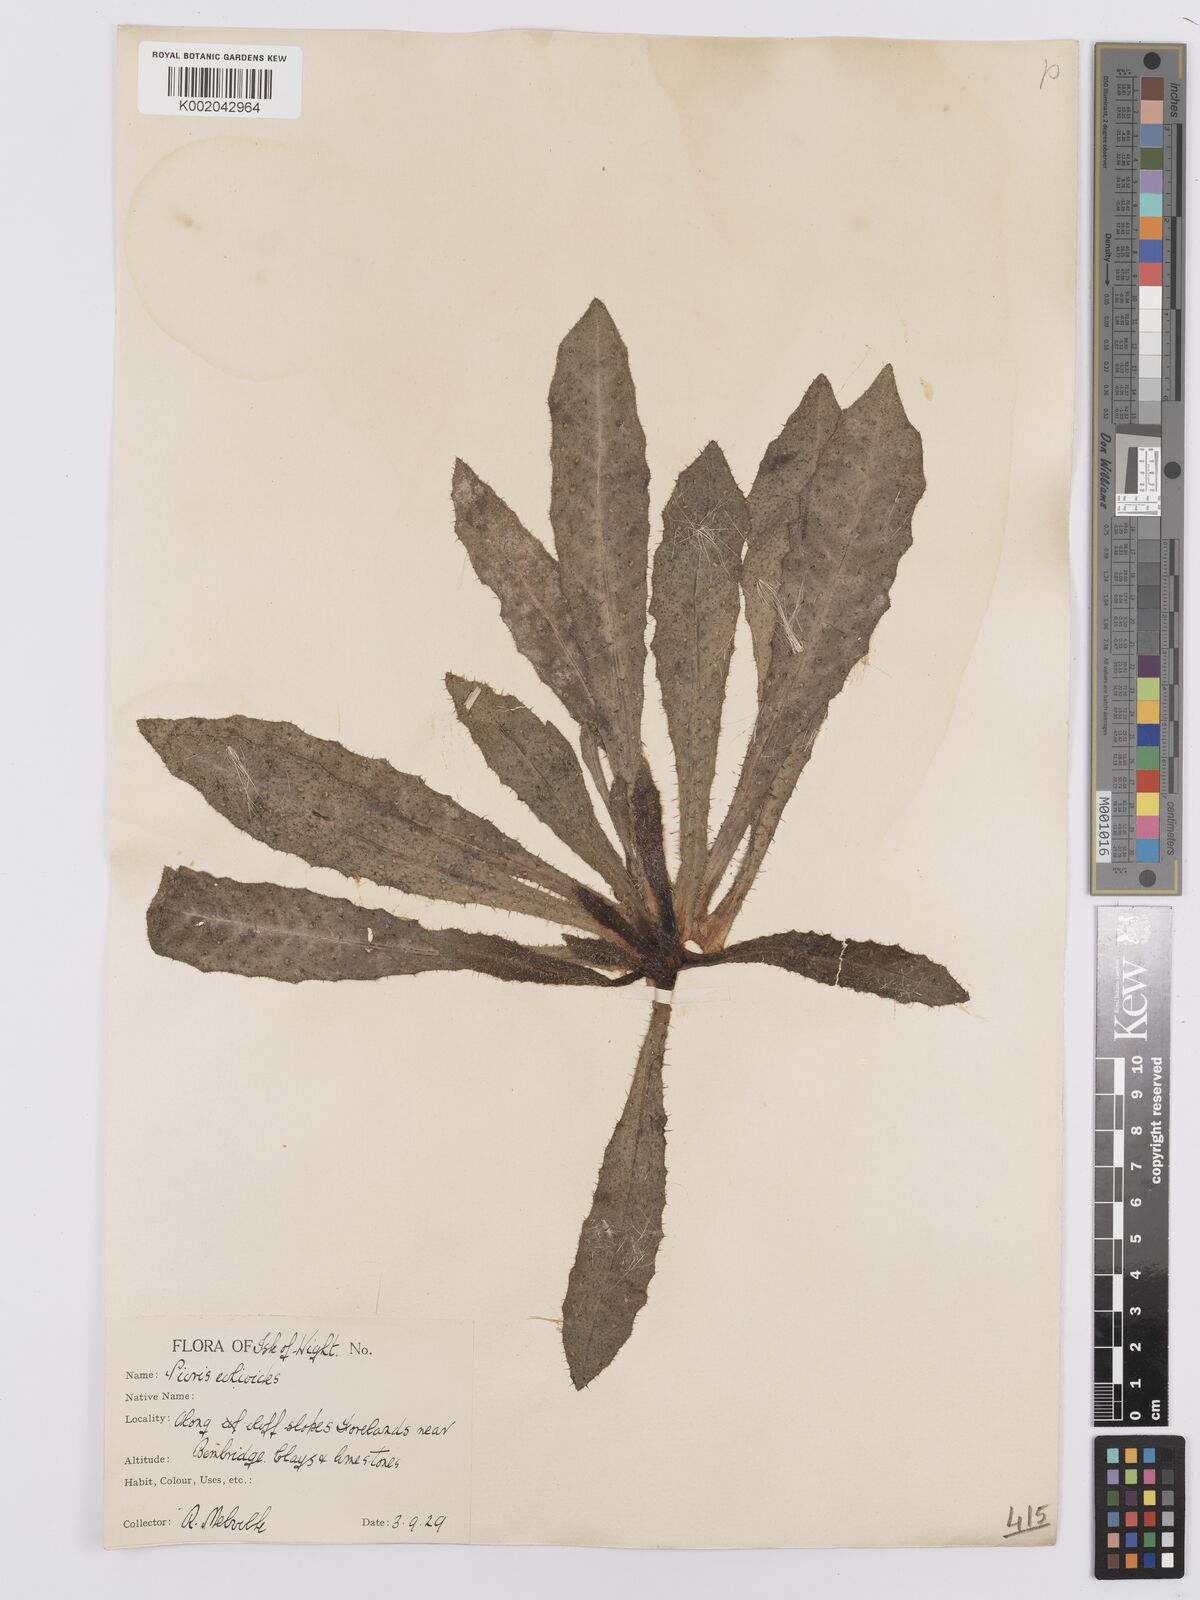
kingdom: Plantae
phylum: Tracheophyta
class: Magnoliopsida
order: Asterales
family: Asteraceae
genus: Helminthotheca
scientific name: Helminthotheca echioides
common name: Ox-tongue
